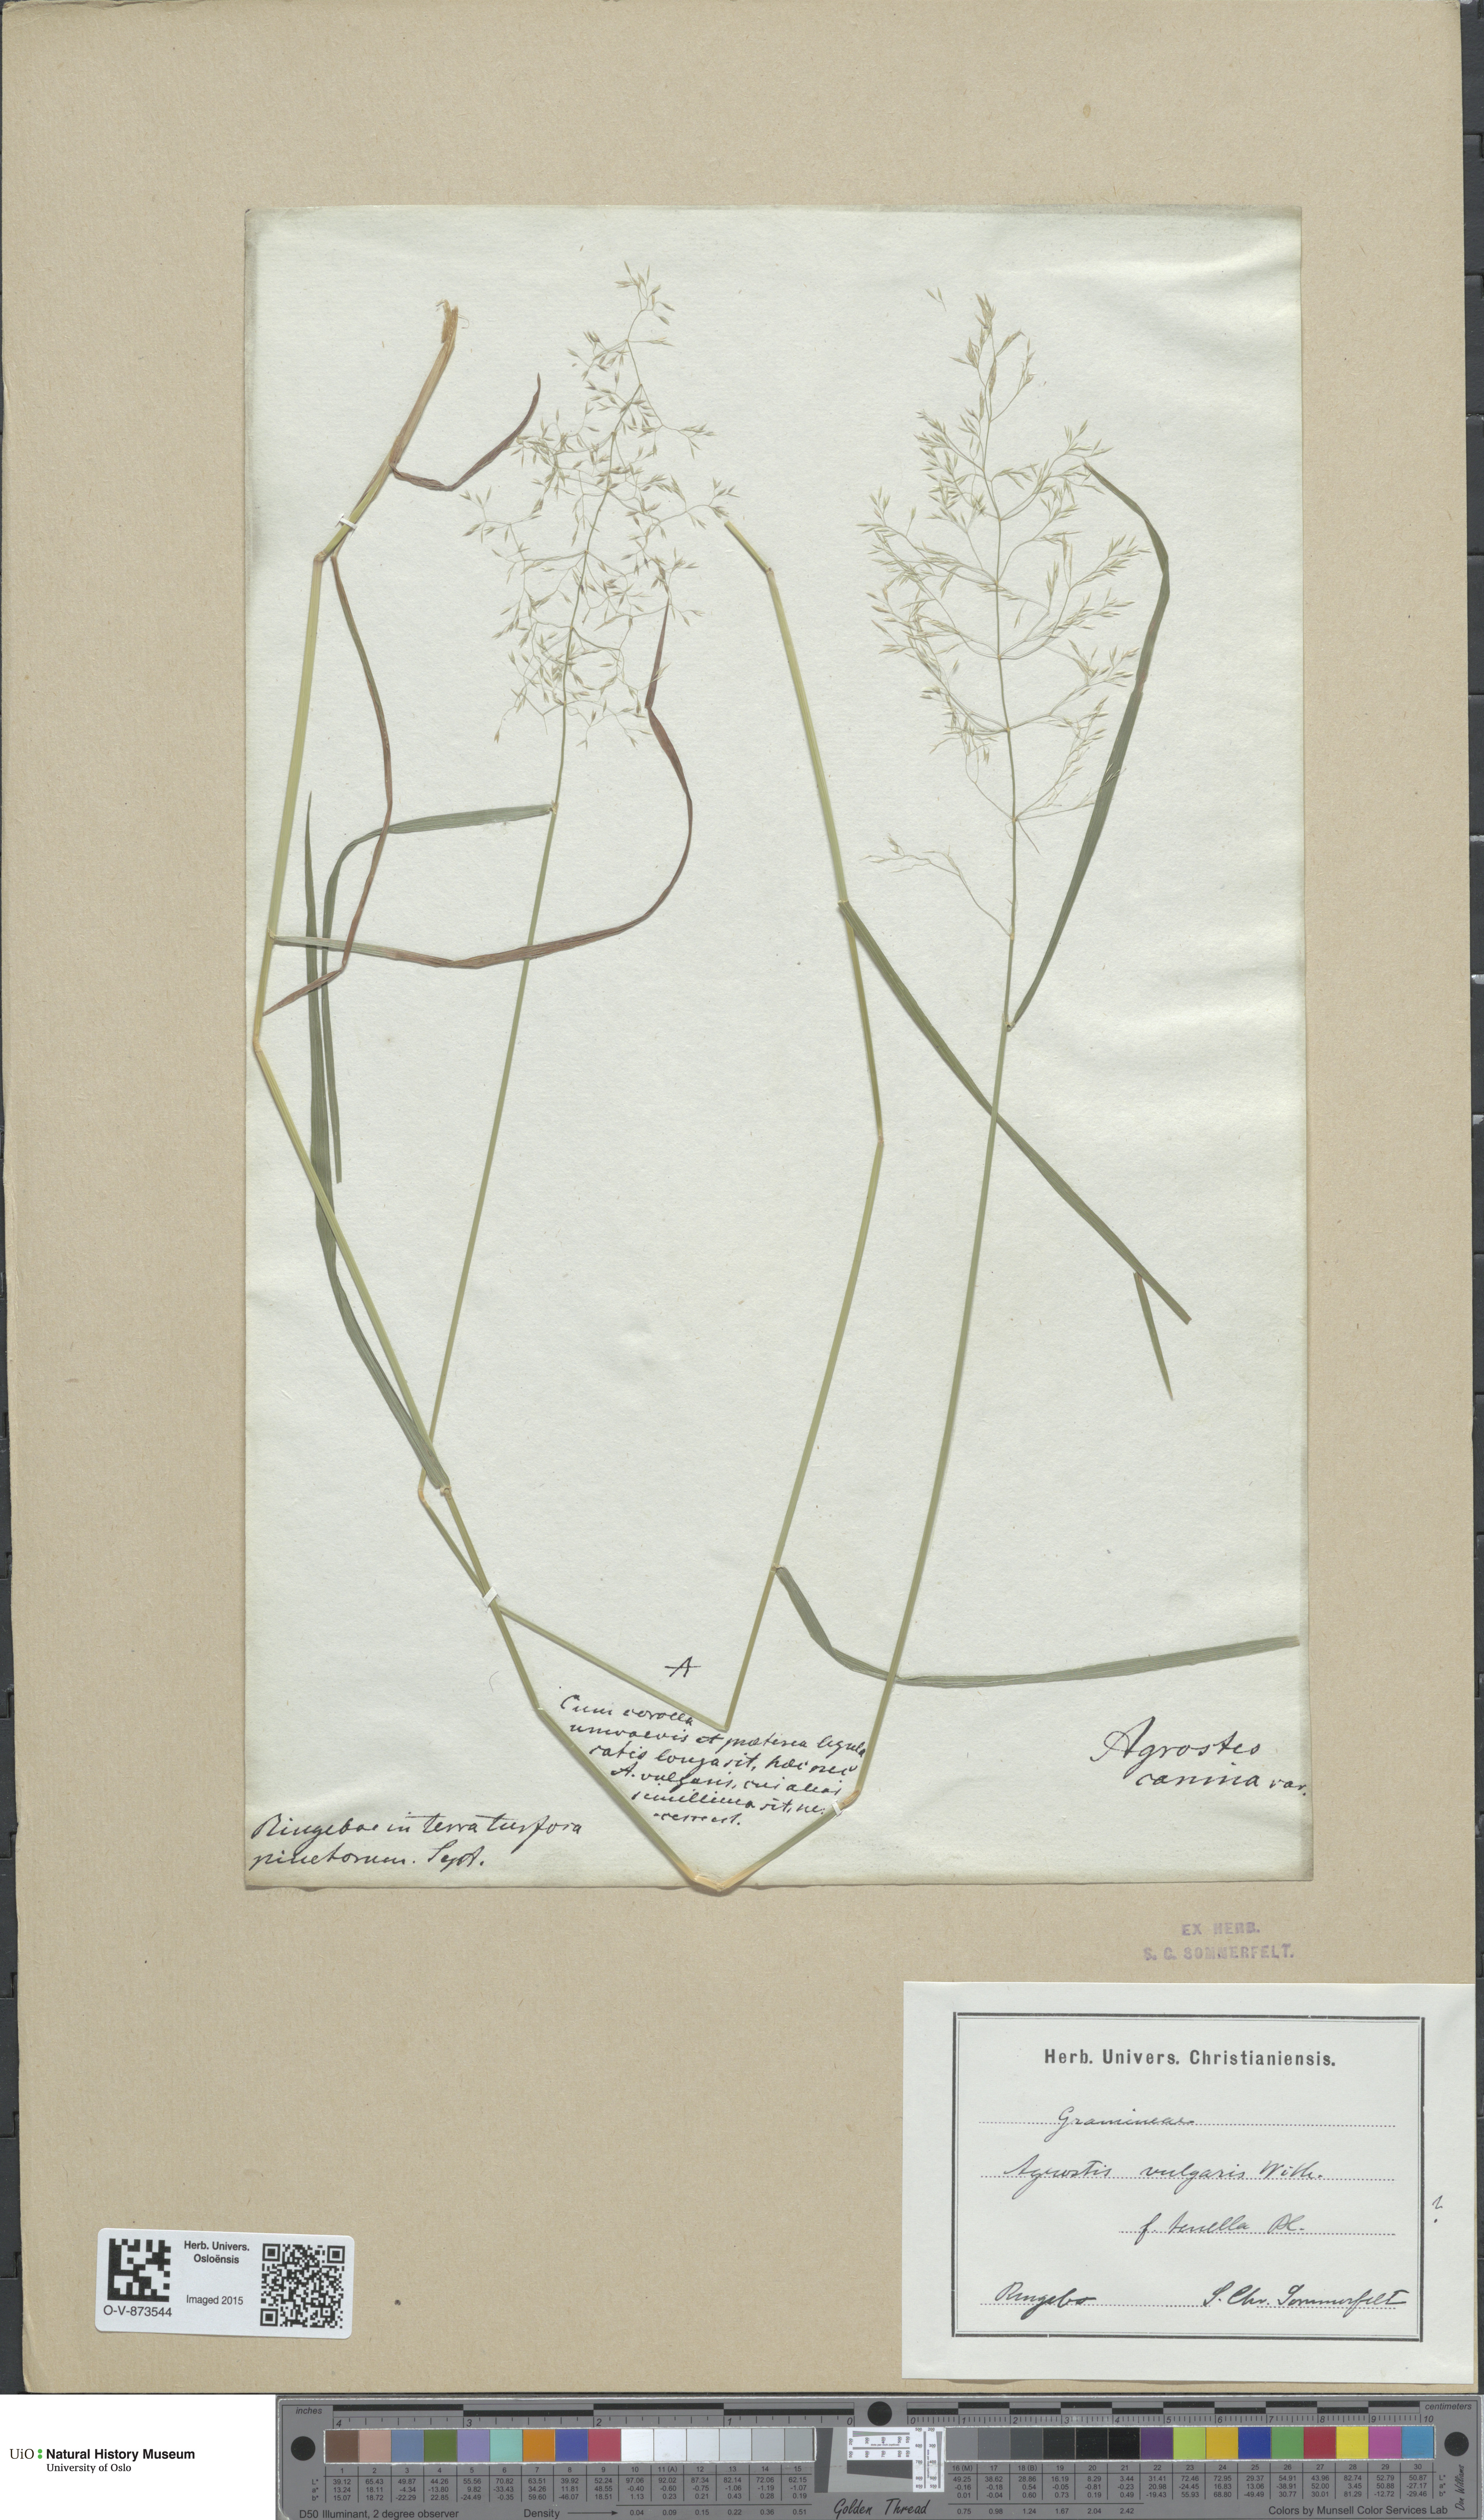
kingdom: Plantae
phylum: Tracheophyta
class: Liliopsida
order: Poales
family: Poaceae
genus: Agrostis
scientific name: Agrostis capillaris
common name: Colonial bentgrass
